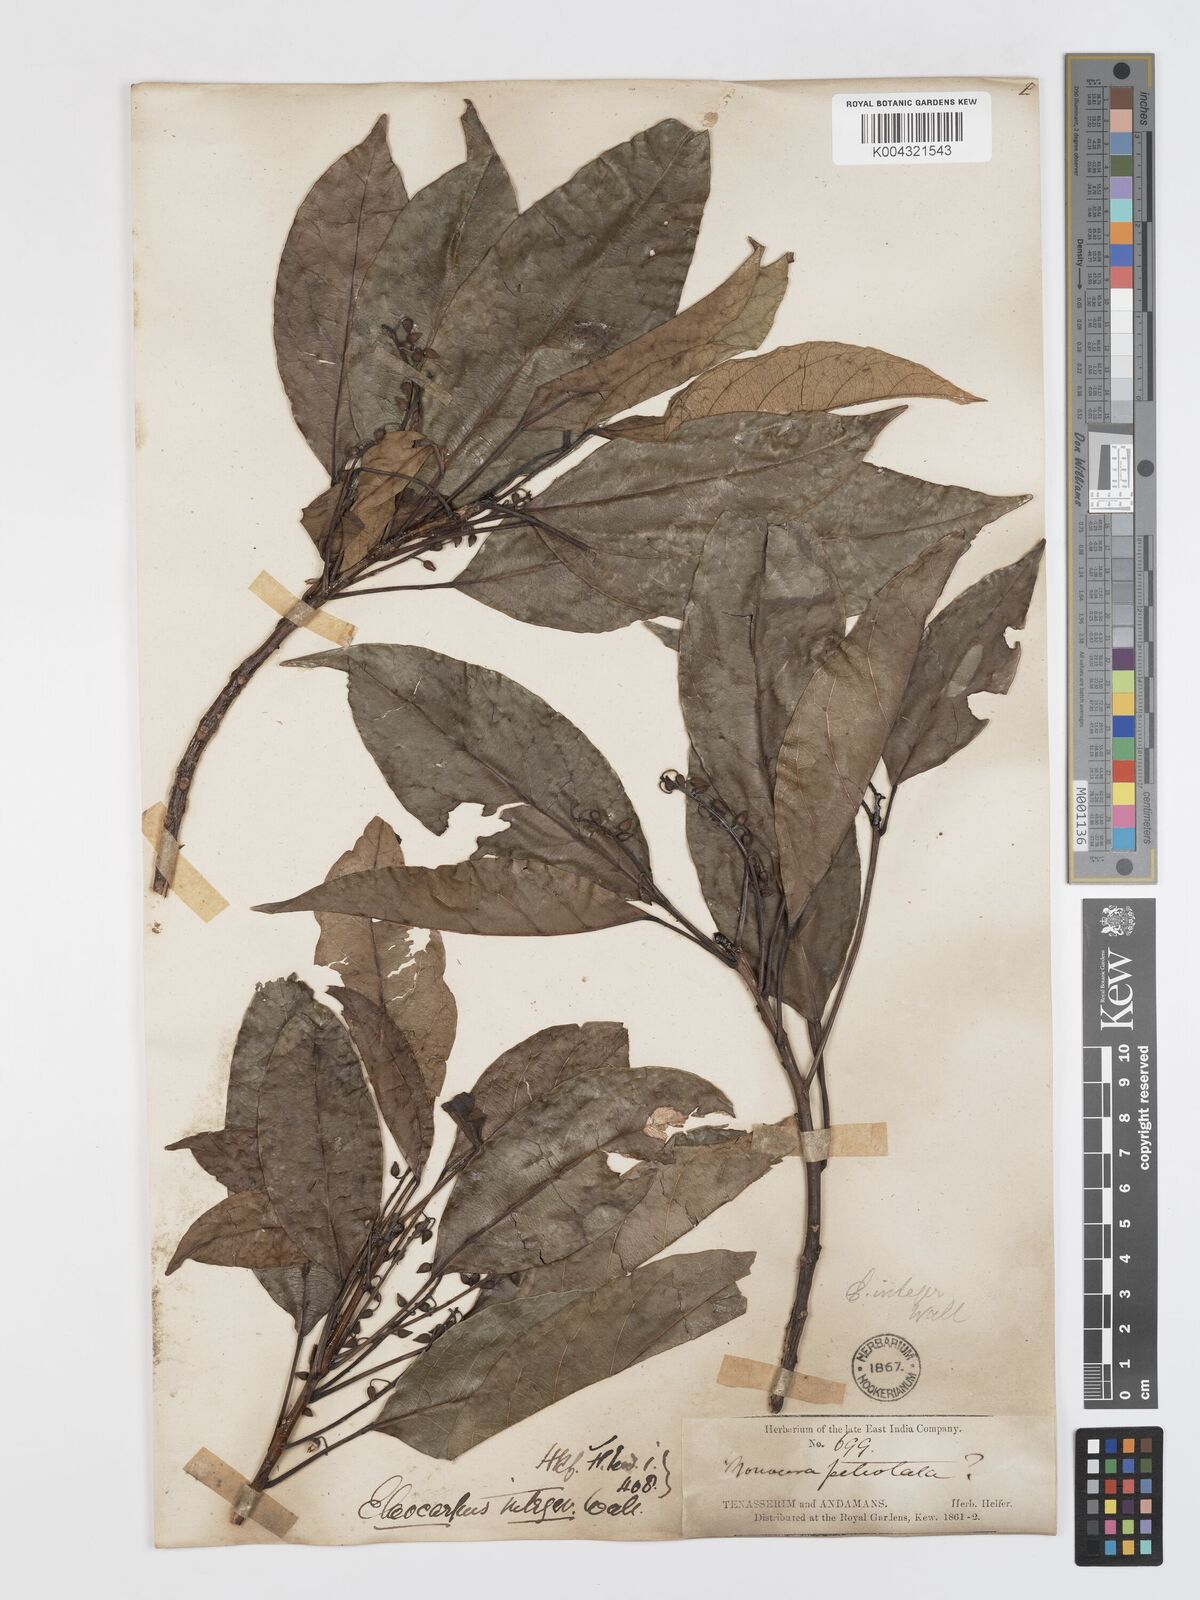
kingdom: Plantae
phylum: Tracheophyta
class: Magnoliopsida
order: Oxalidales
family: Elaeocarpaceae
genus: Elaeocarpus
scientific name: Elaeocarpus petiolatus
